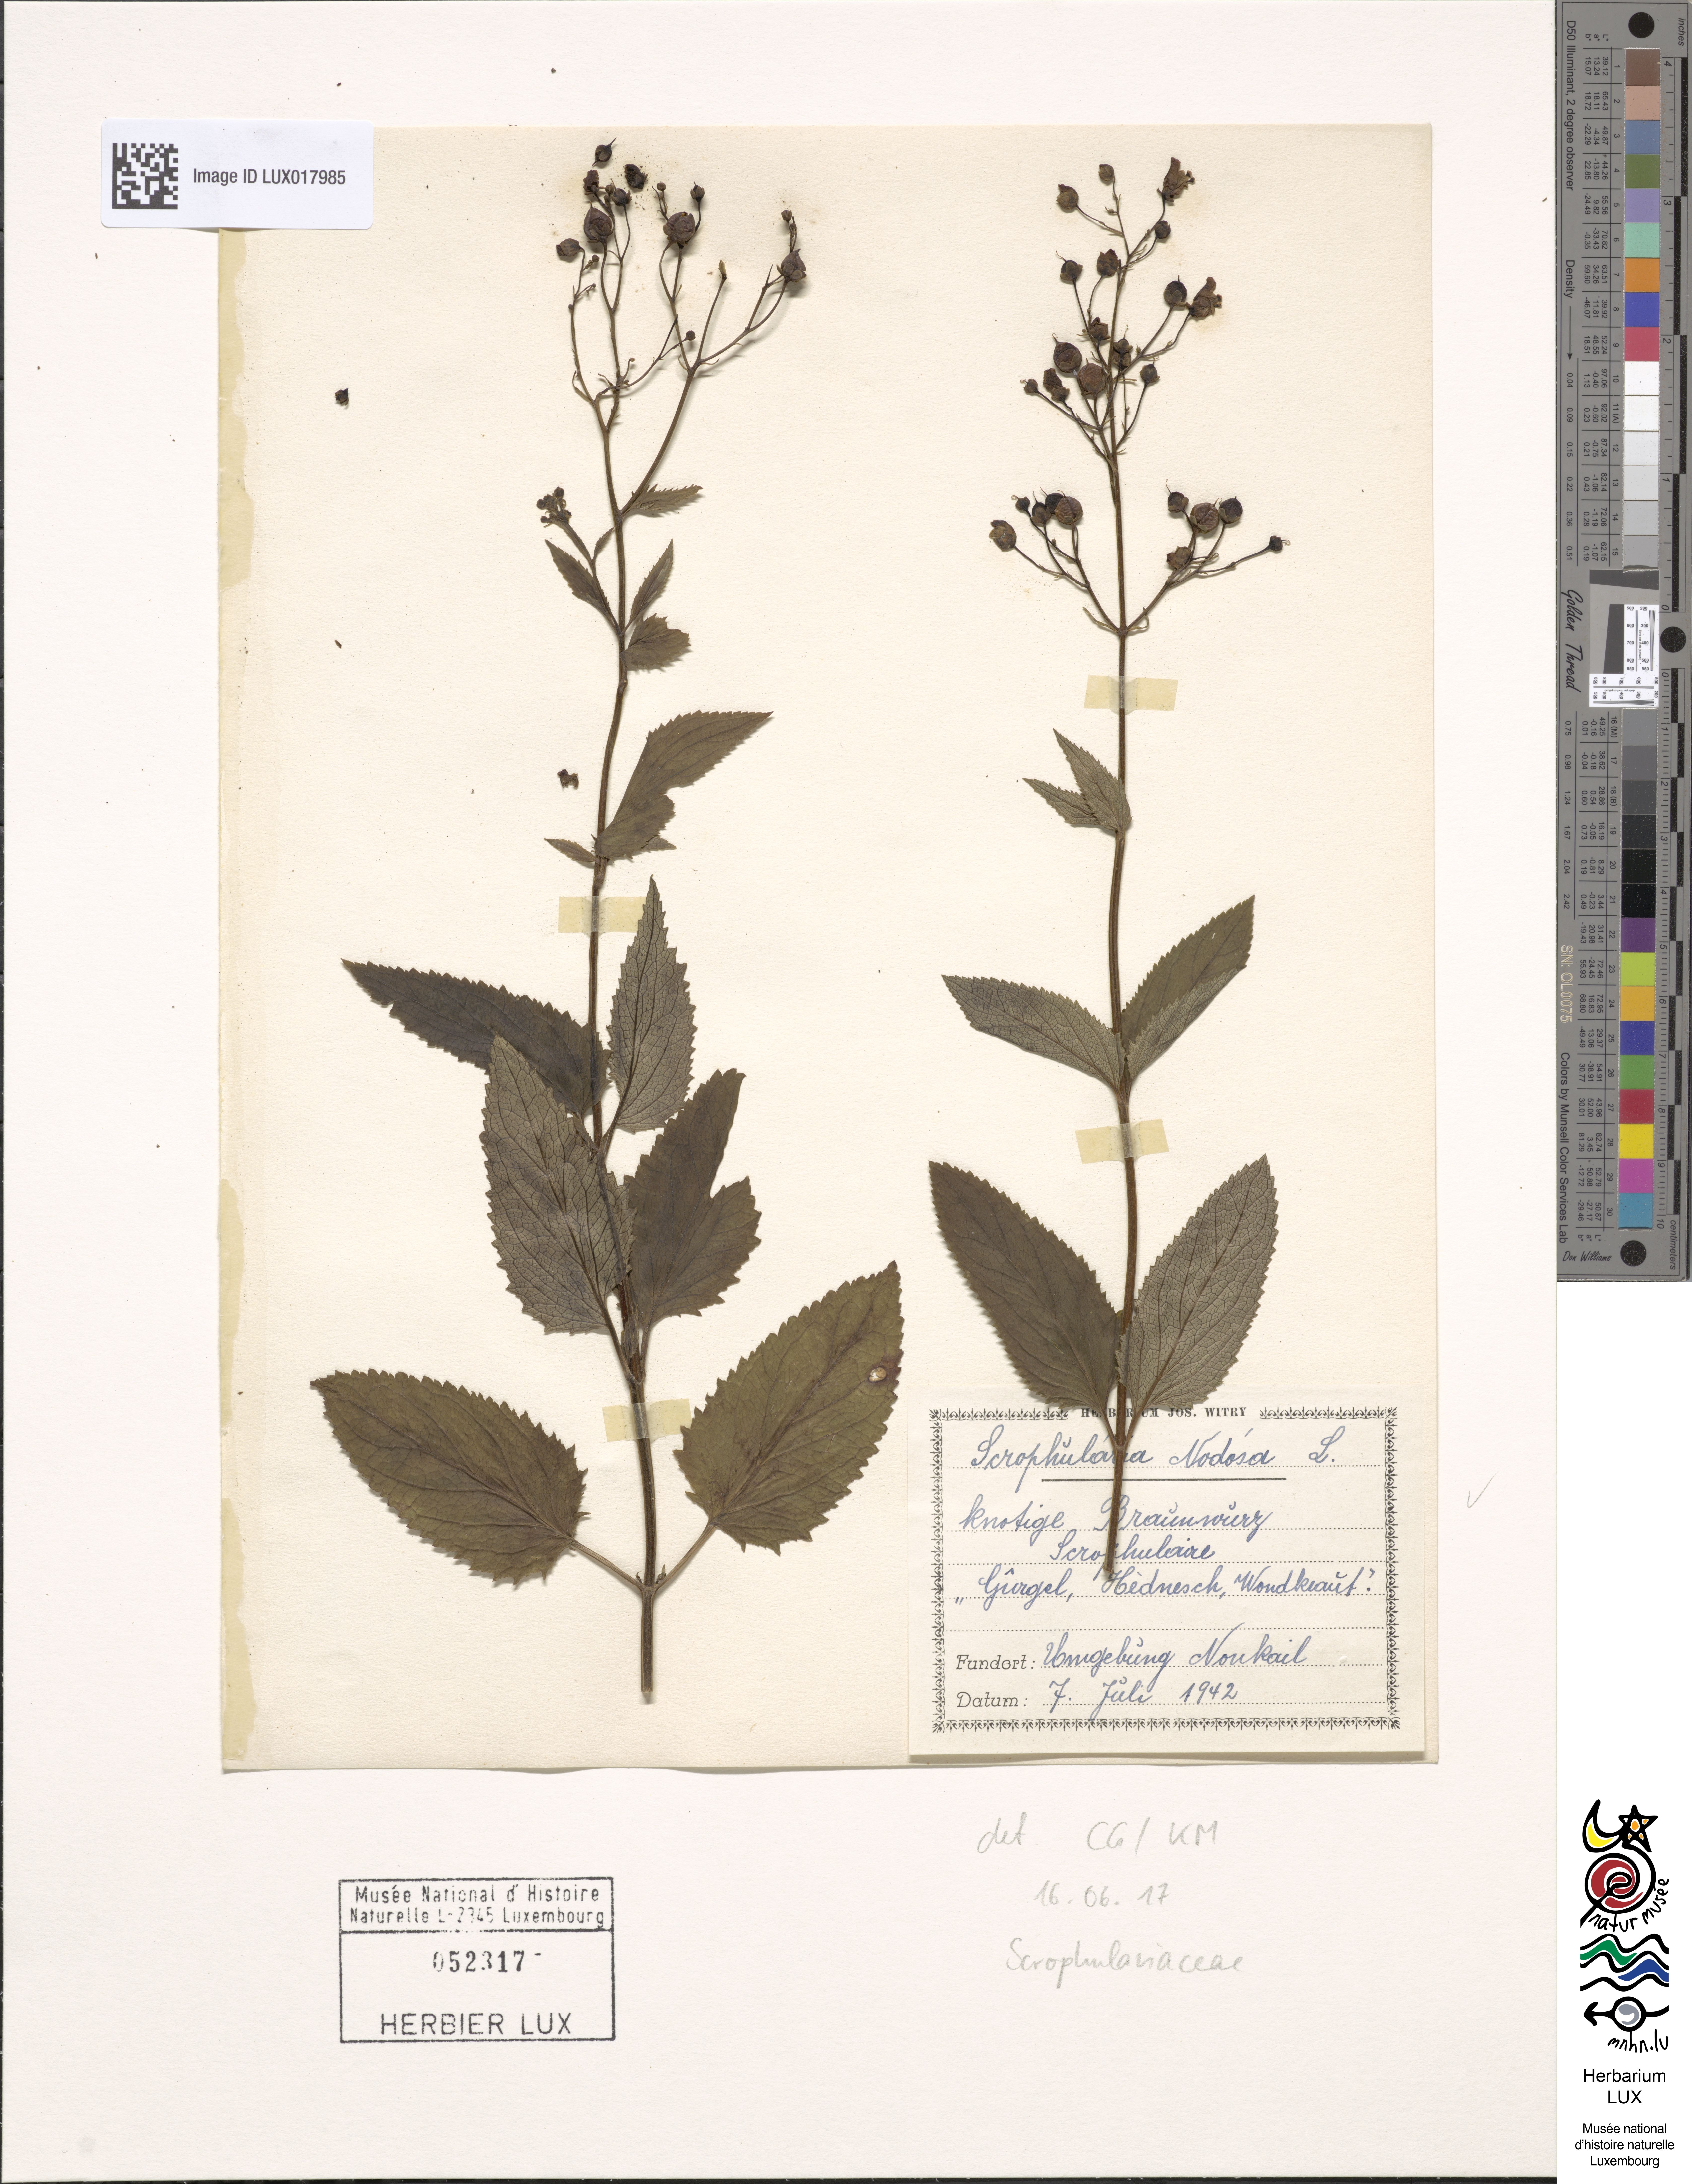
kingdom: Plantae
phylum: Tracheophyta
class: Magnoliopsida
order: Lamiales
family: Scrophulariaceae
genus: Scrophularia
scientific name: Scrophularia nodosa
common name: Common figwort
